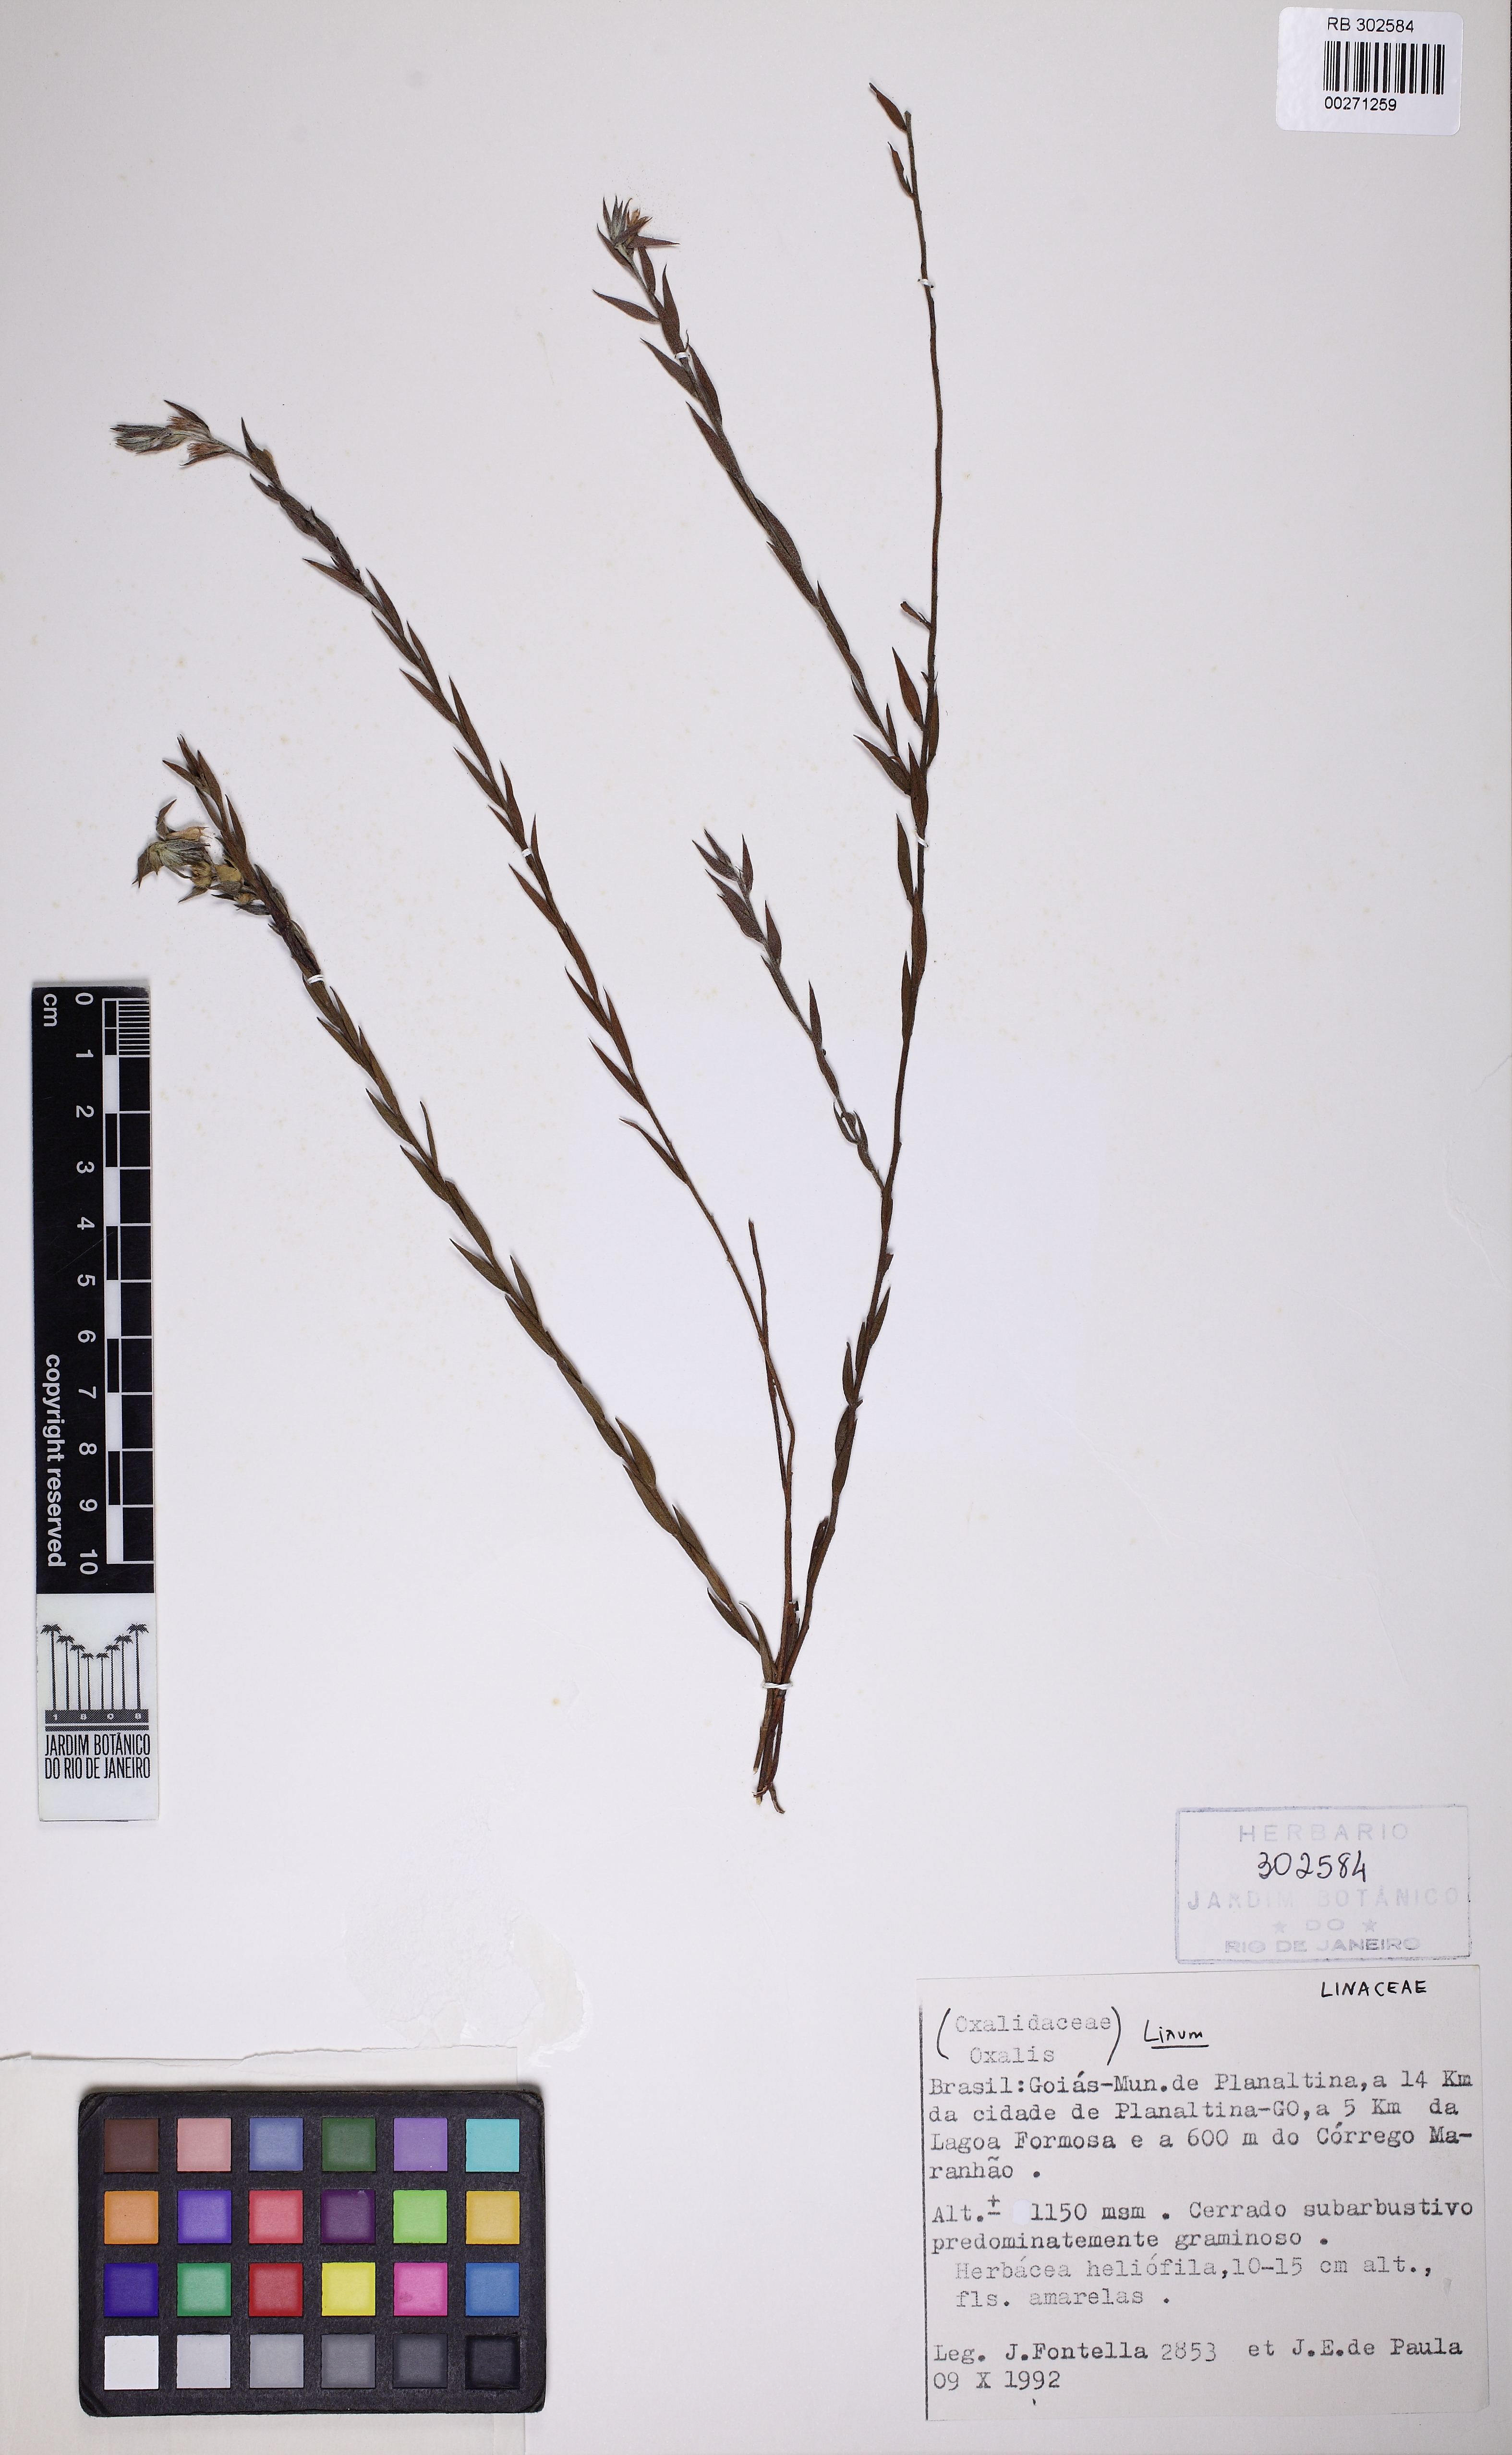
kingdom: Plantae
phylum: Tracheophyta
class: Magnoliopsida
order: Zygophyllales
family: Krameriaceae
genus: Krameria
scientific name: Krameria
